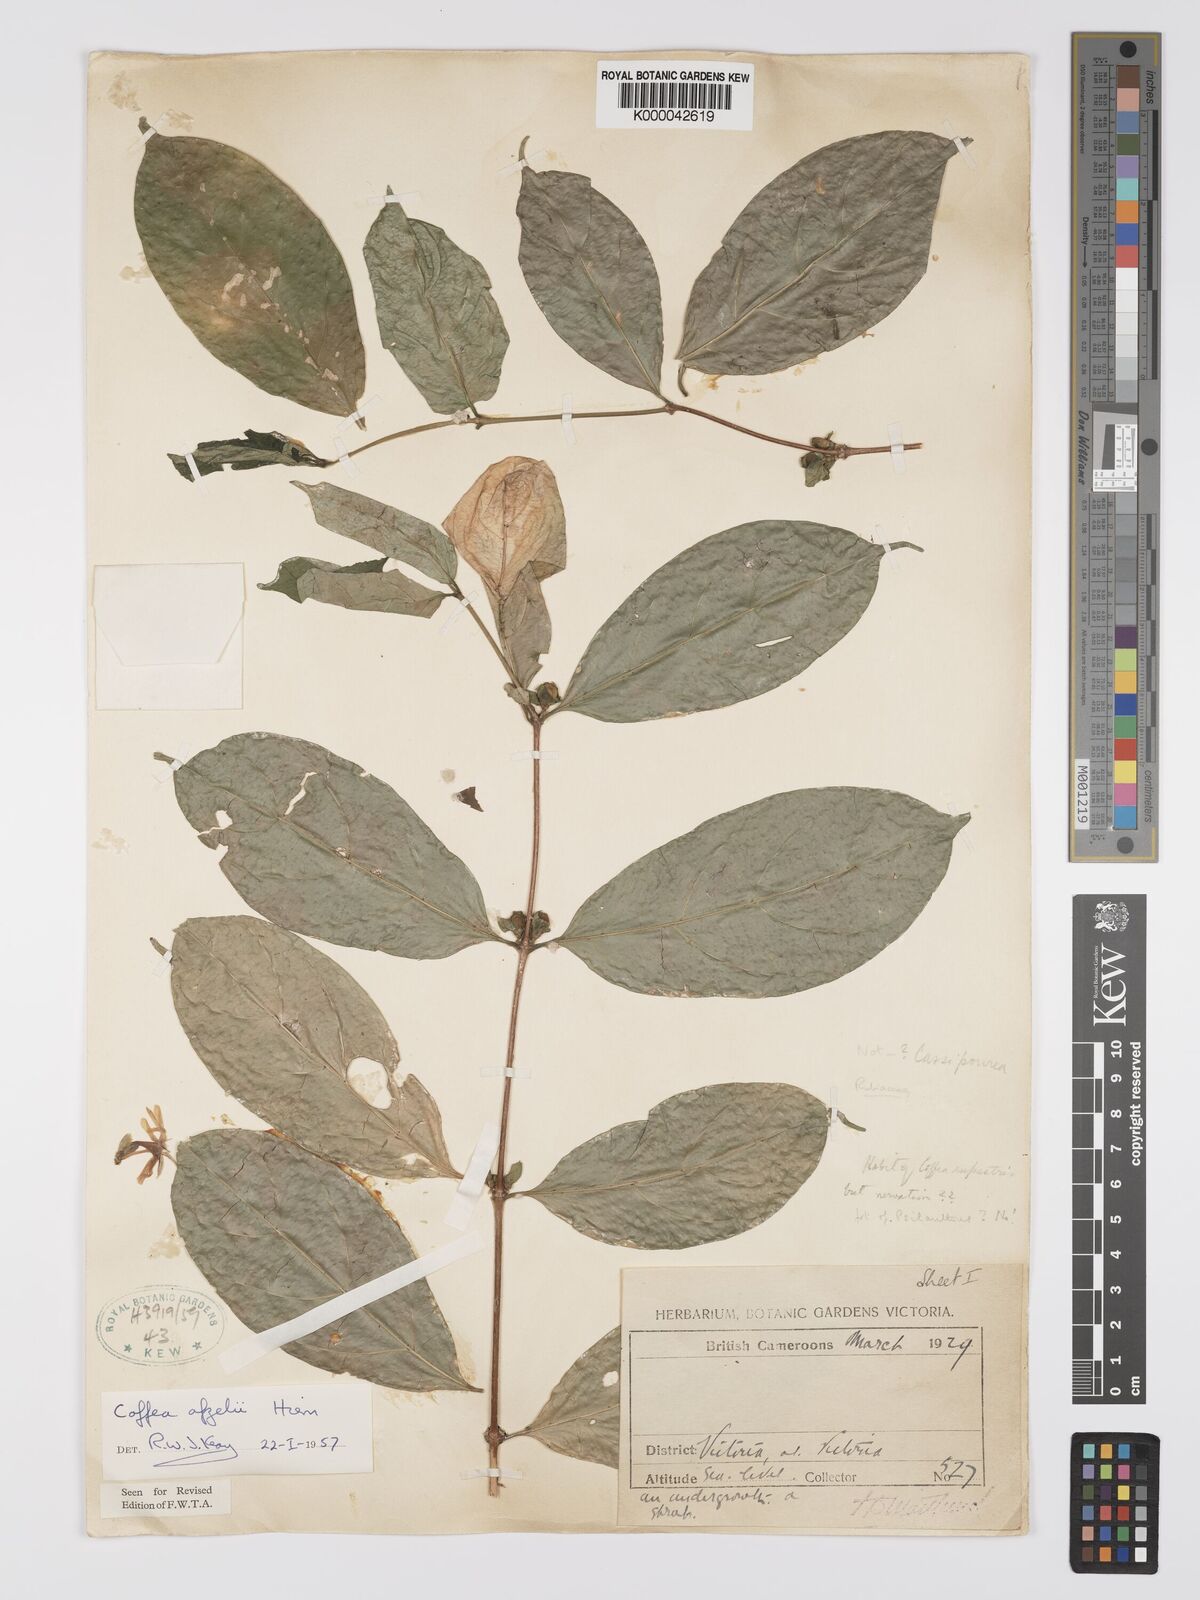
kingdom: Plantae
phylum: Tracheophyta
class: Magnoliopsida
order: Gentianales
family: Rubiaceae
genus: Argocoffeopsis
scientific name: Argocoffeopsis afzelii
